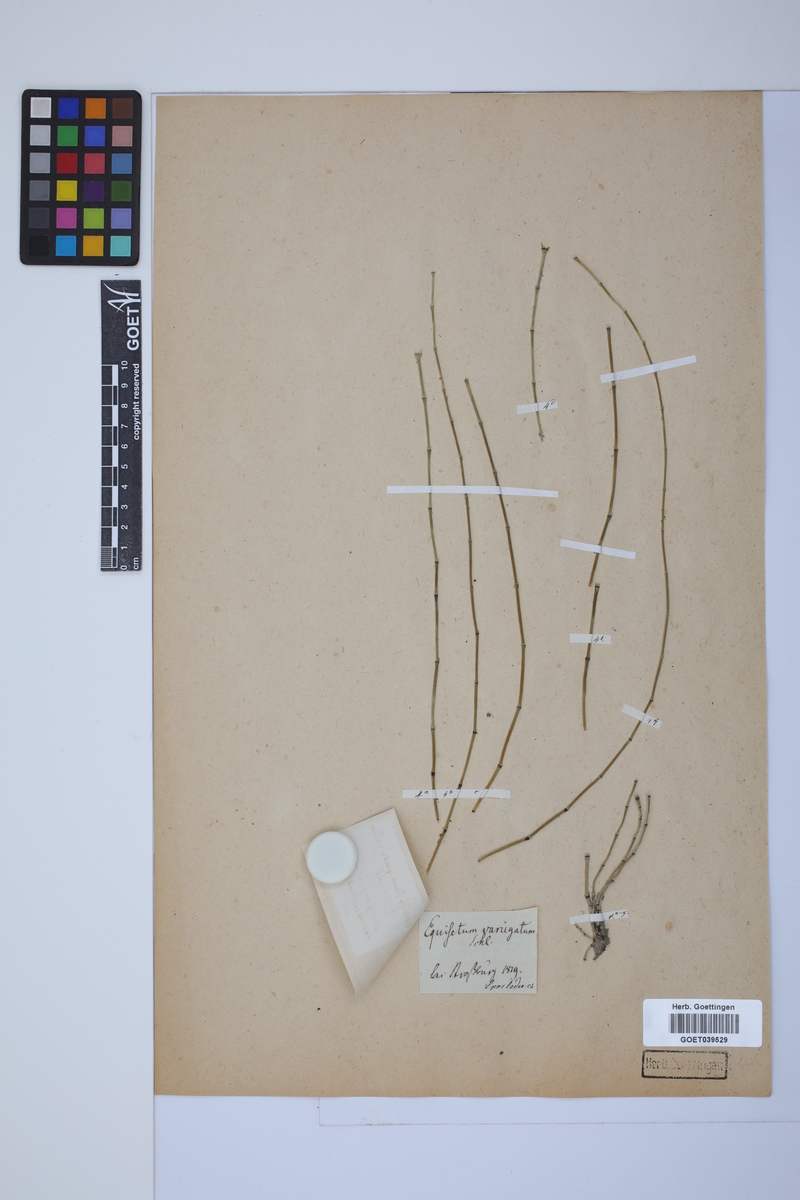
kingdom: Plantae
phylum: Tracheophyta
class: Polypodiopsida
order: Equisetales
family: Equisetaceae
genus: Equisetum
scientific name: Equisetum variegatum
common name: Variegated horsetail
